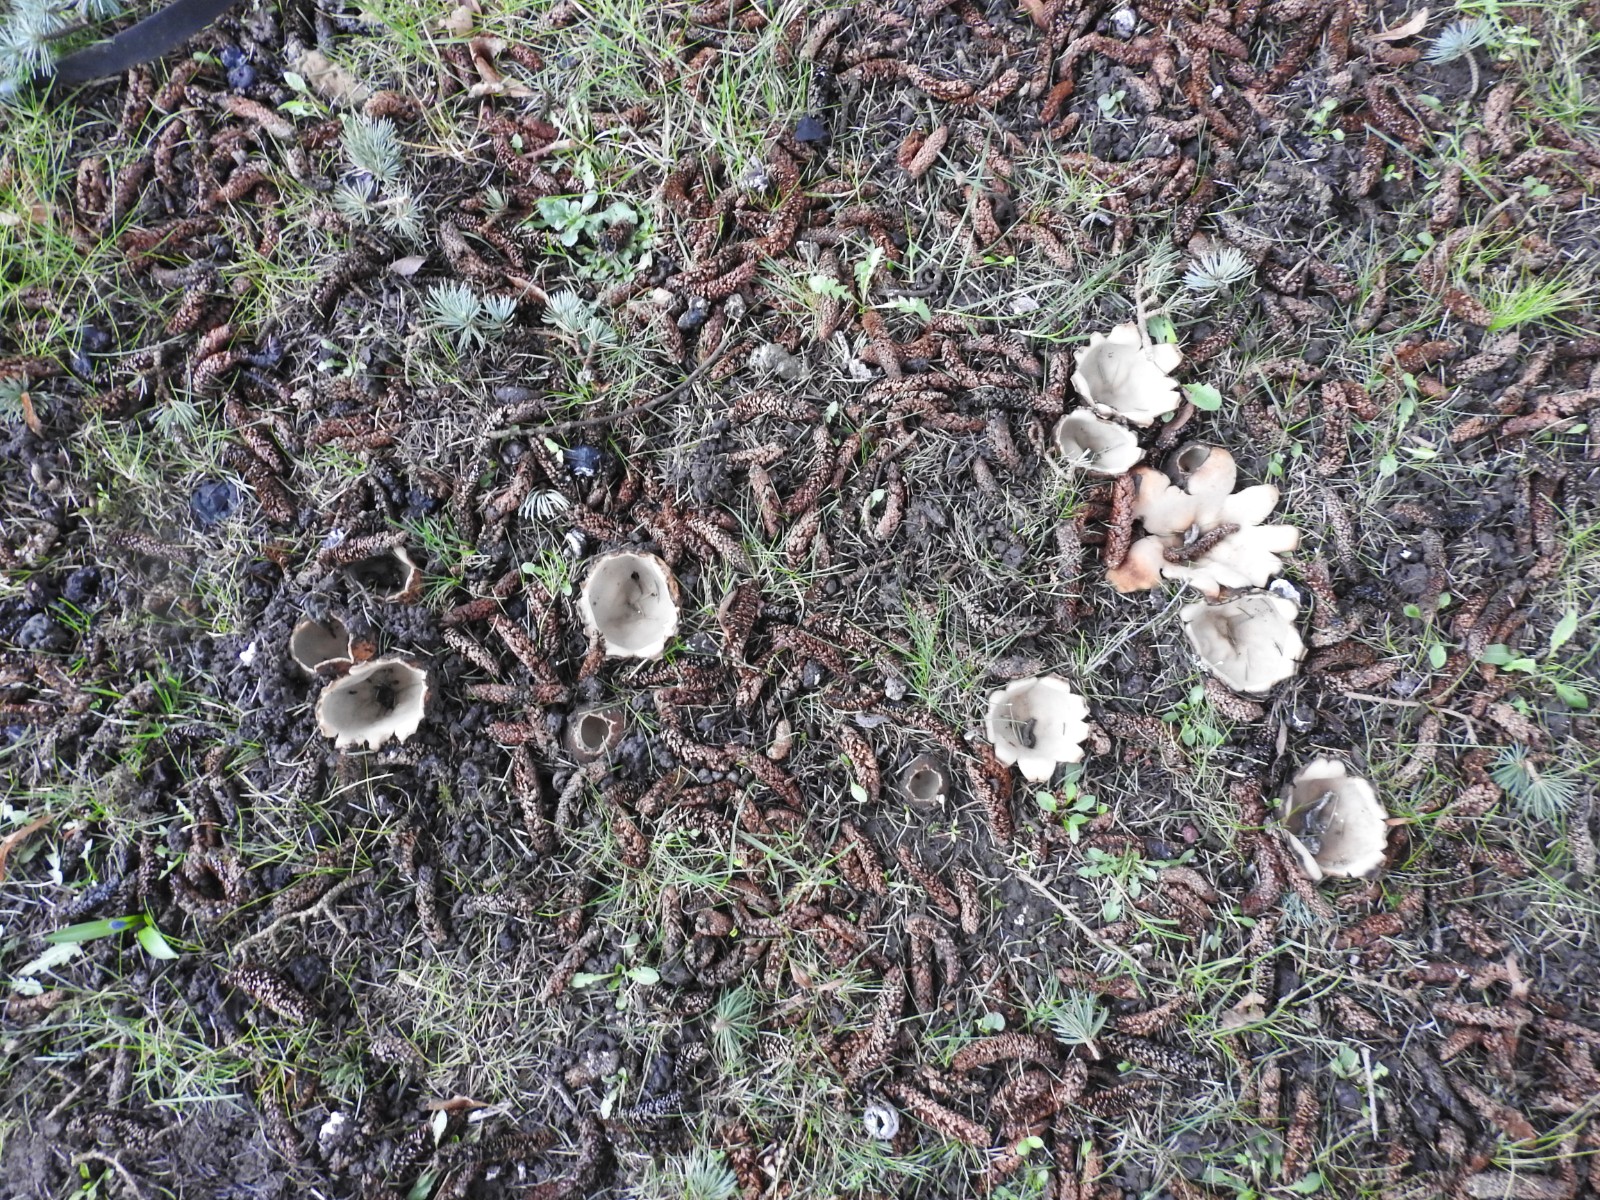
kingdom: Fungi
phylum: Ascomycota
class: Pezizomycetes
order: Pezizales
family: Pyronemataceae
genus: Geopora
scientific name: Geopora sumneriana
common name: vår-jordbæger
